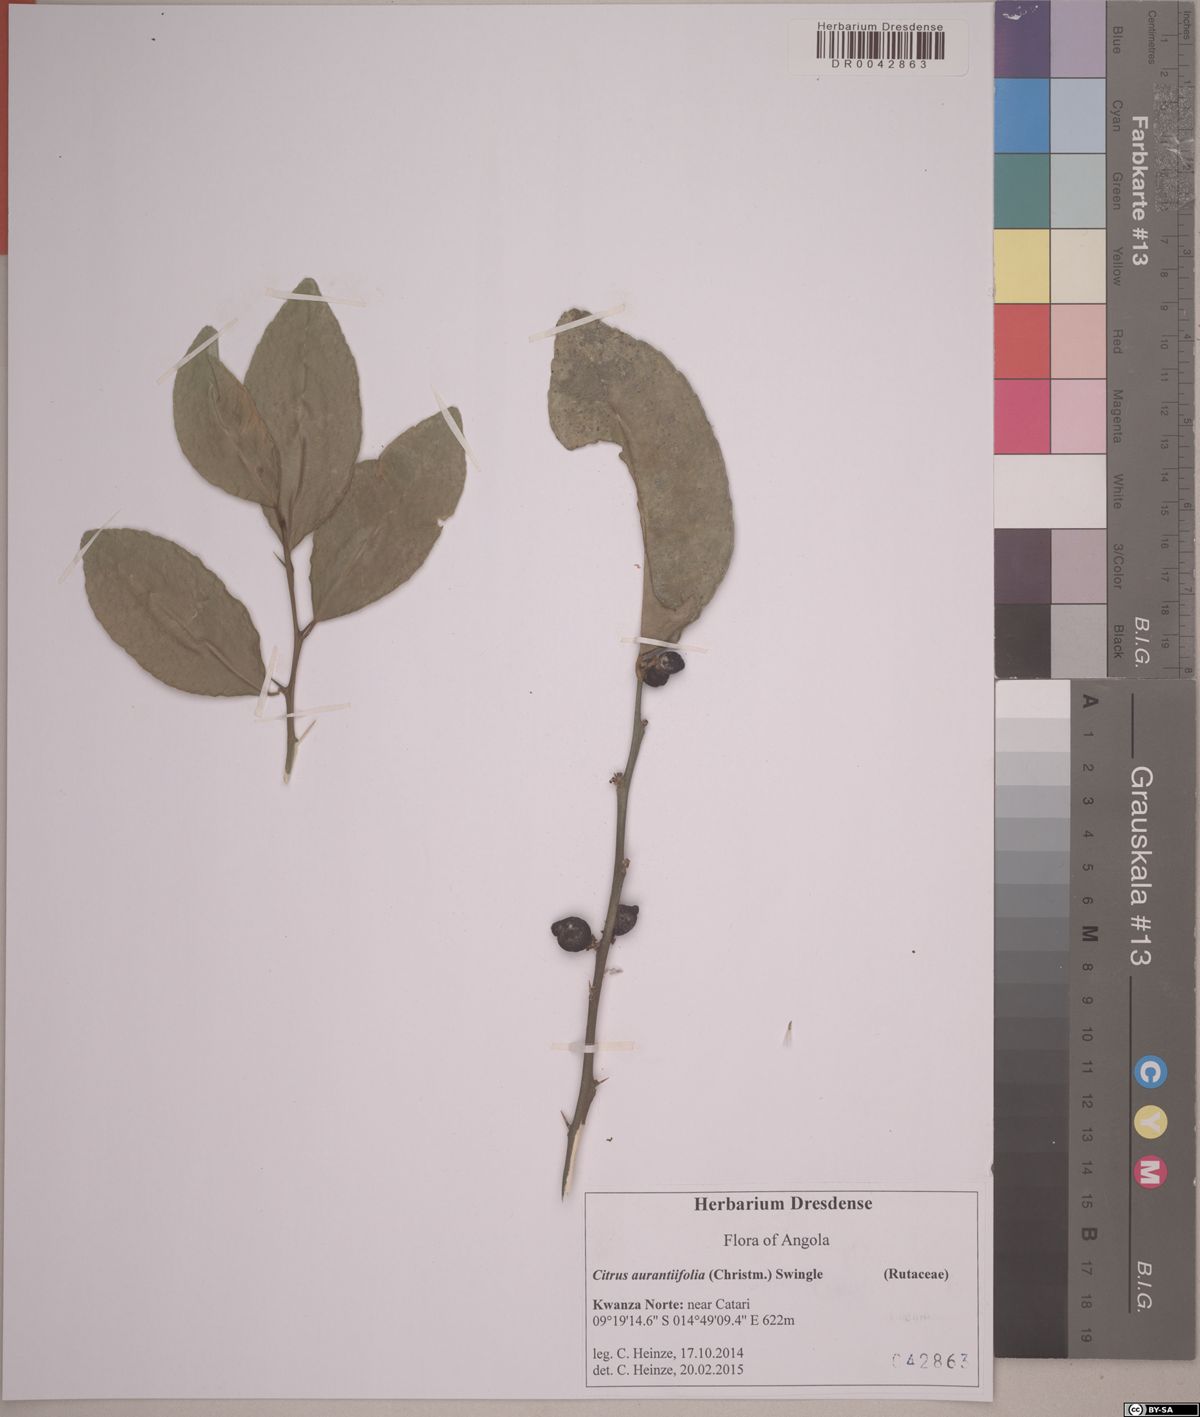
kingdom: Plantae
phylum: Tracheophyta
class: Magnoliopsida
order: Sapindales
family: Rutaceae
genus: Citrus
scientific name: Citrus aurantiifolia
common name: Key lime
